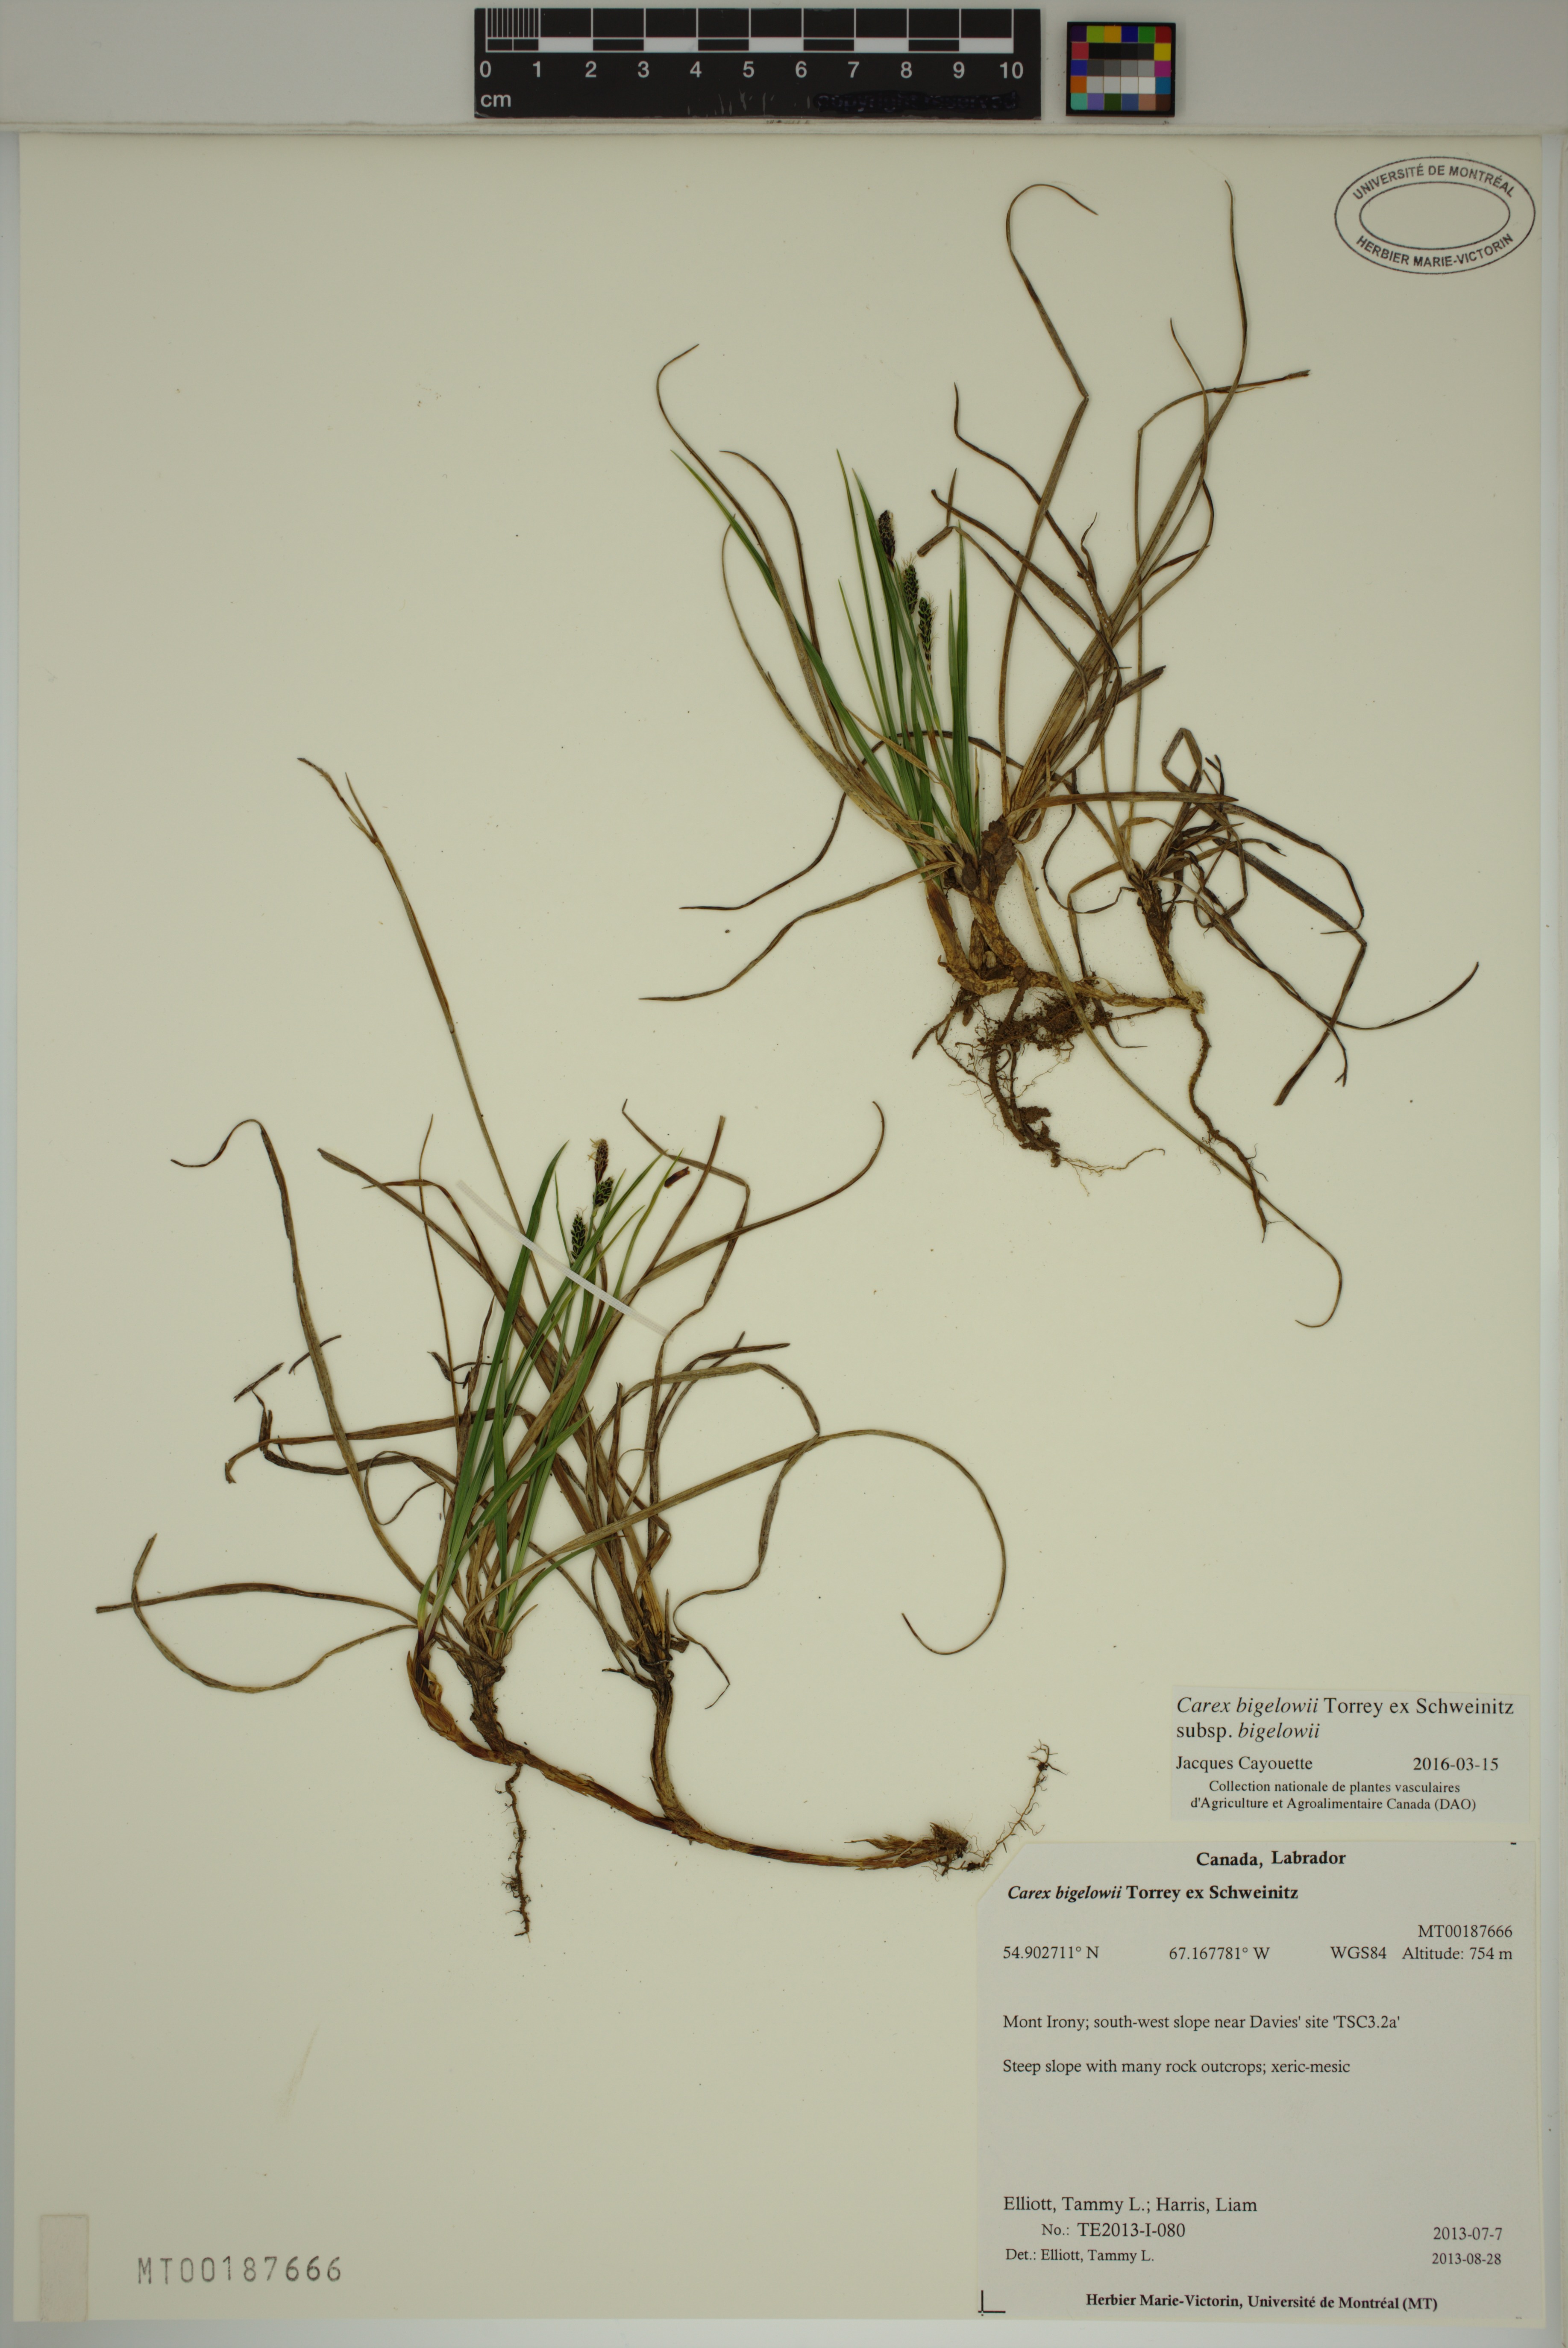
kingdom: Plantae
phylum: Tracheophyta
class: Liliopsida
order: Poales
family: Cyperaceae
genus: Carex
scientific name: Carex bigelowii
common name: Stiff sedge
